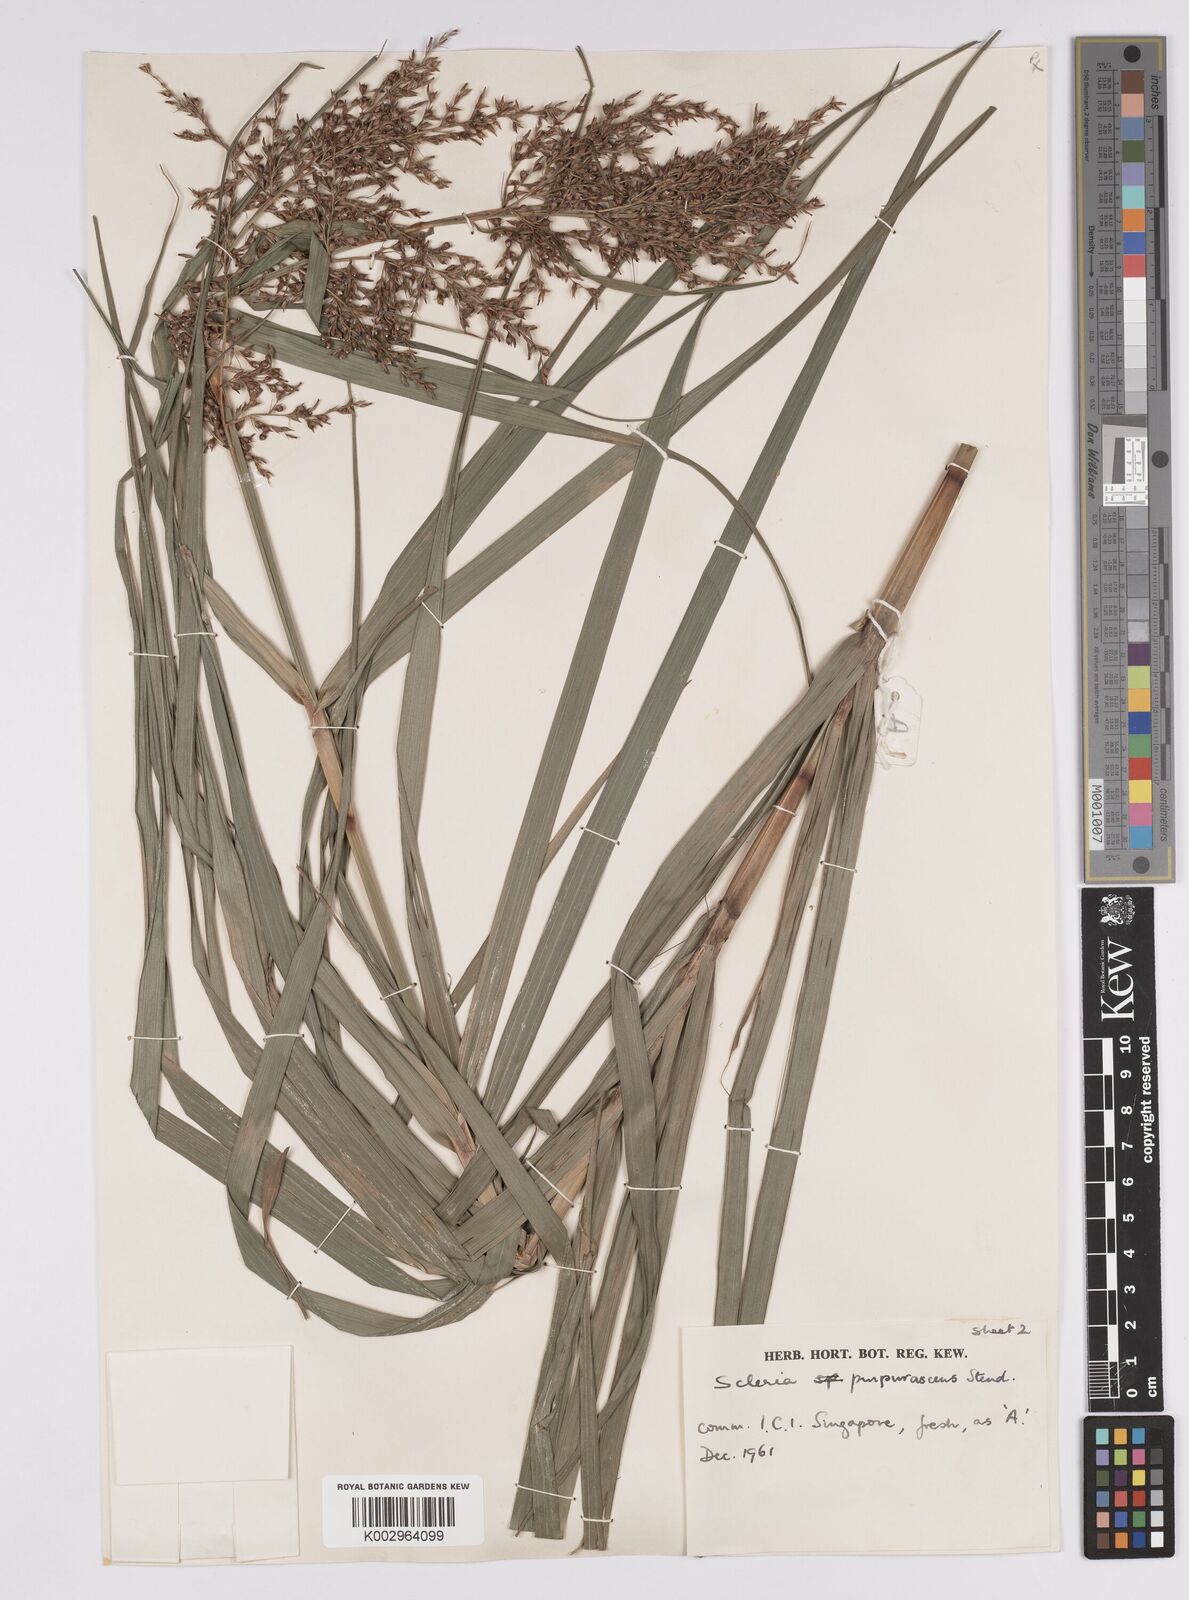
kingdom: Plantae
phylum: Tracheophyta
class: Liliopsida
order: Poales
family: Cyperaceae
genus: Scleria
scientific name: Scleria purpurascens
